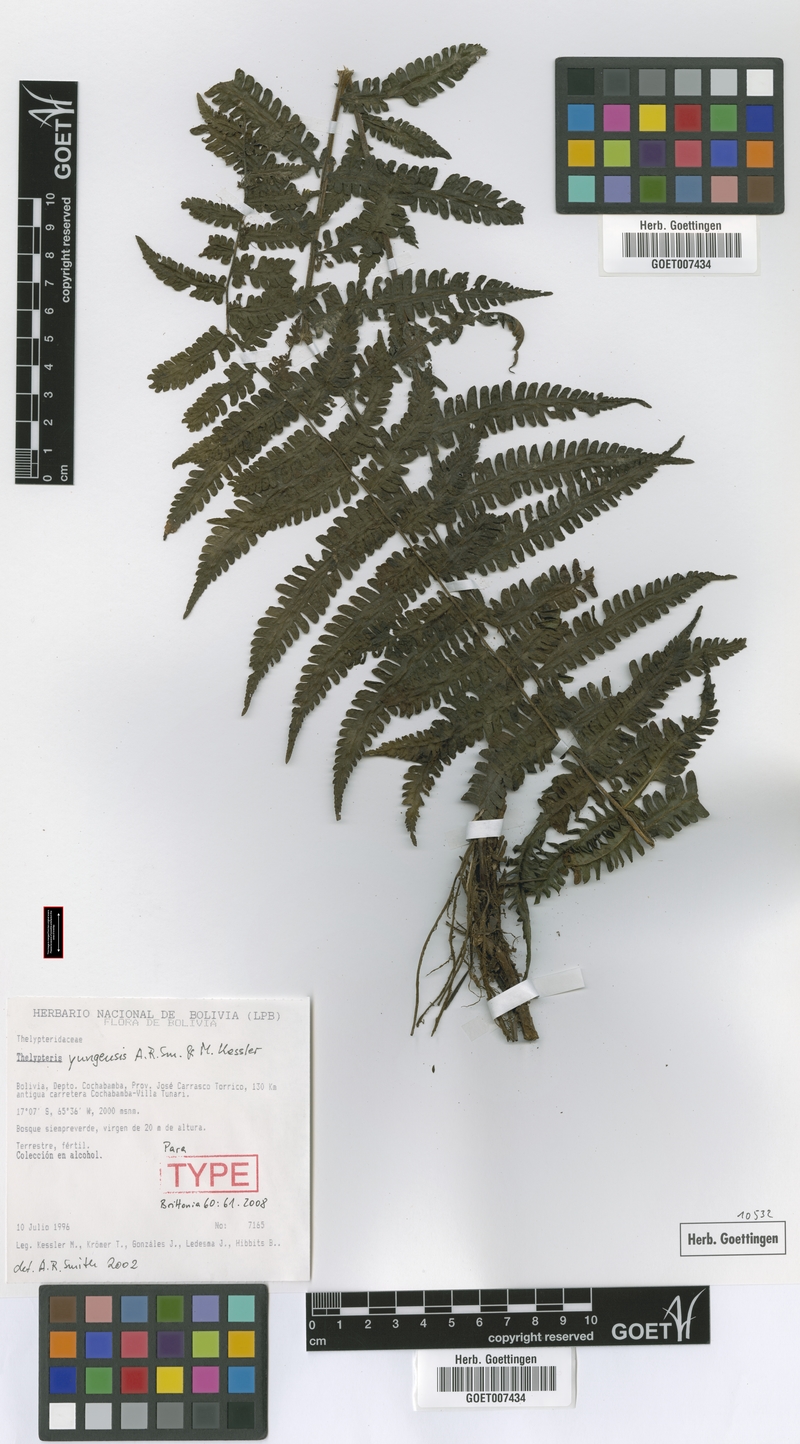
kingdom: Plantae
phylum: Tracheophyta
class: Polypodiopsida
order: Polypodiales
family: Thelypteridaceae
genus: Amauropelta
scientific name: Amauropelta yungensis
